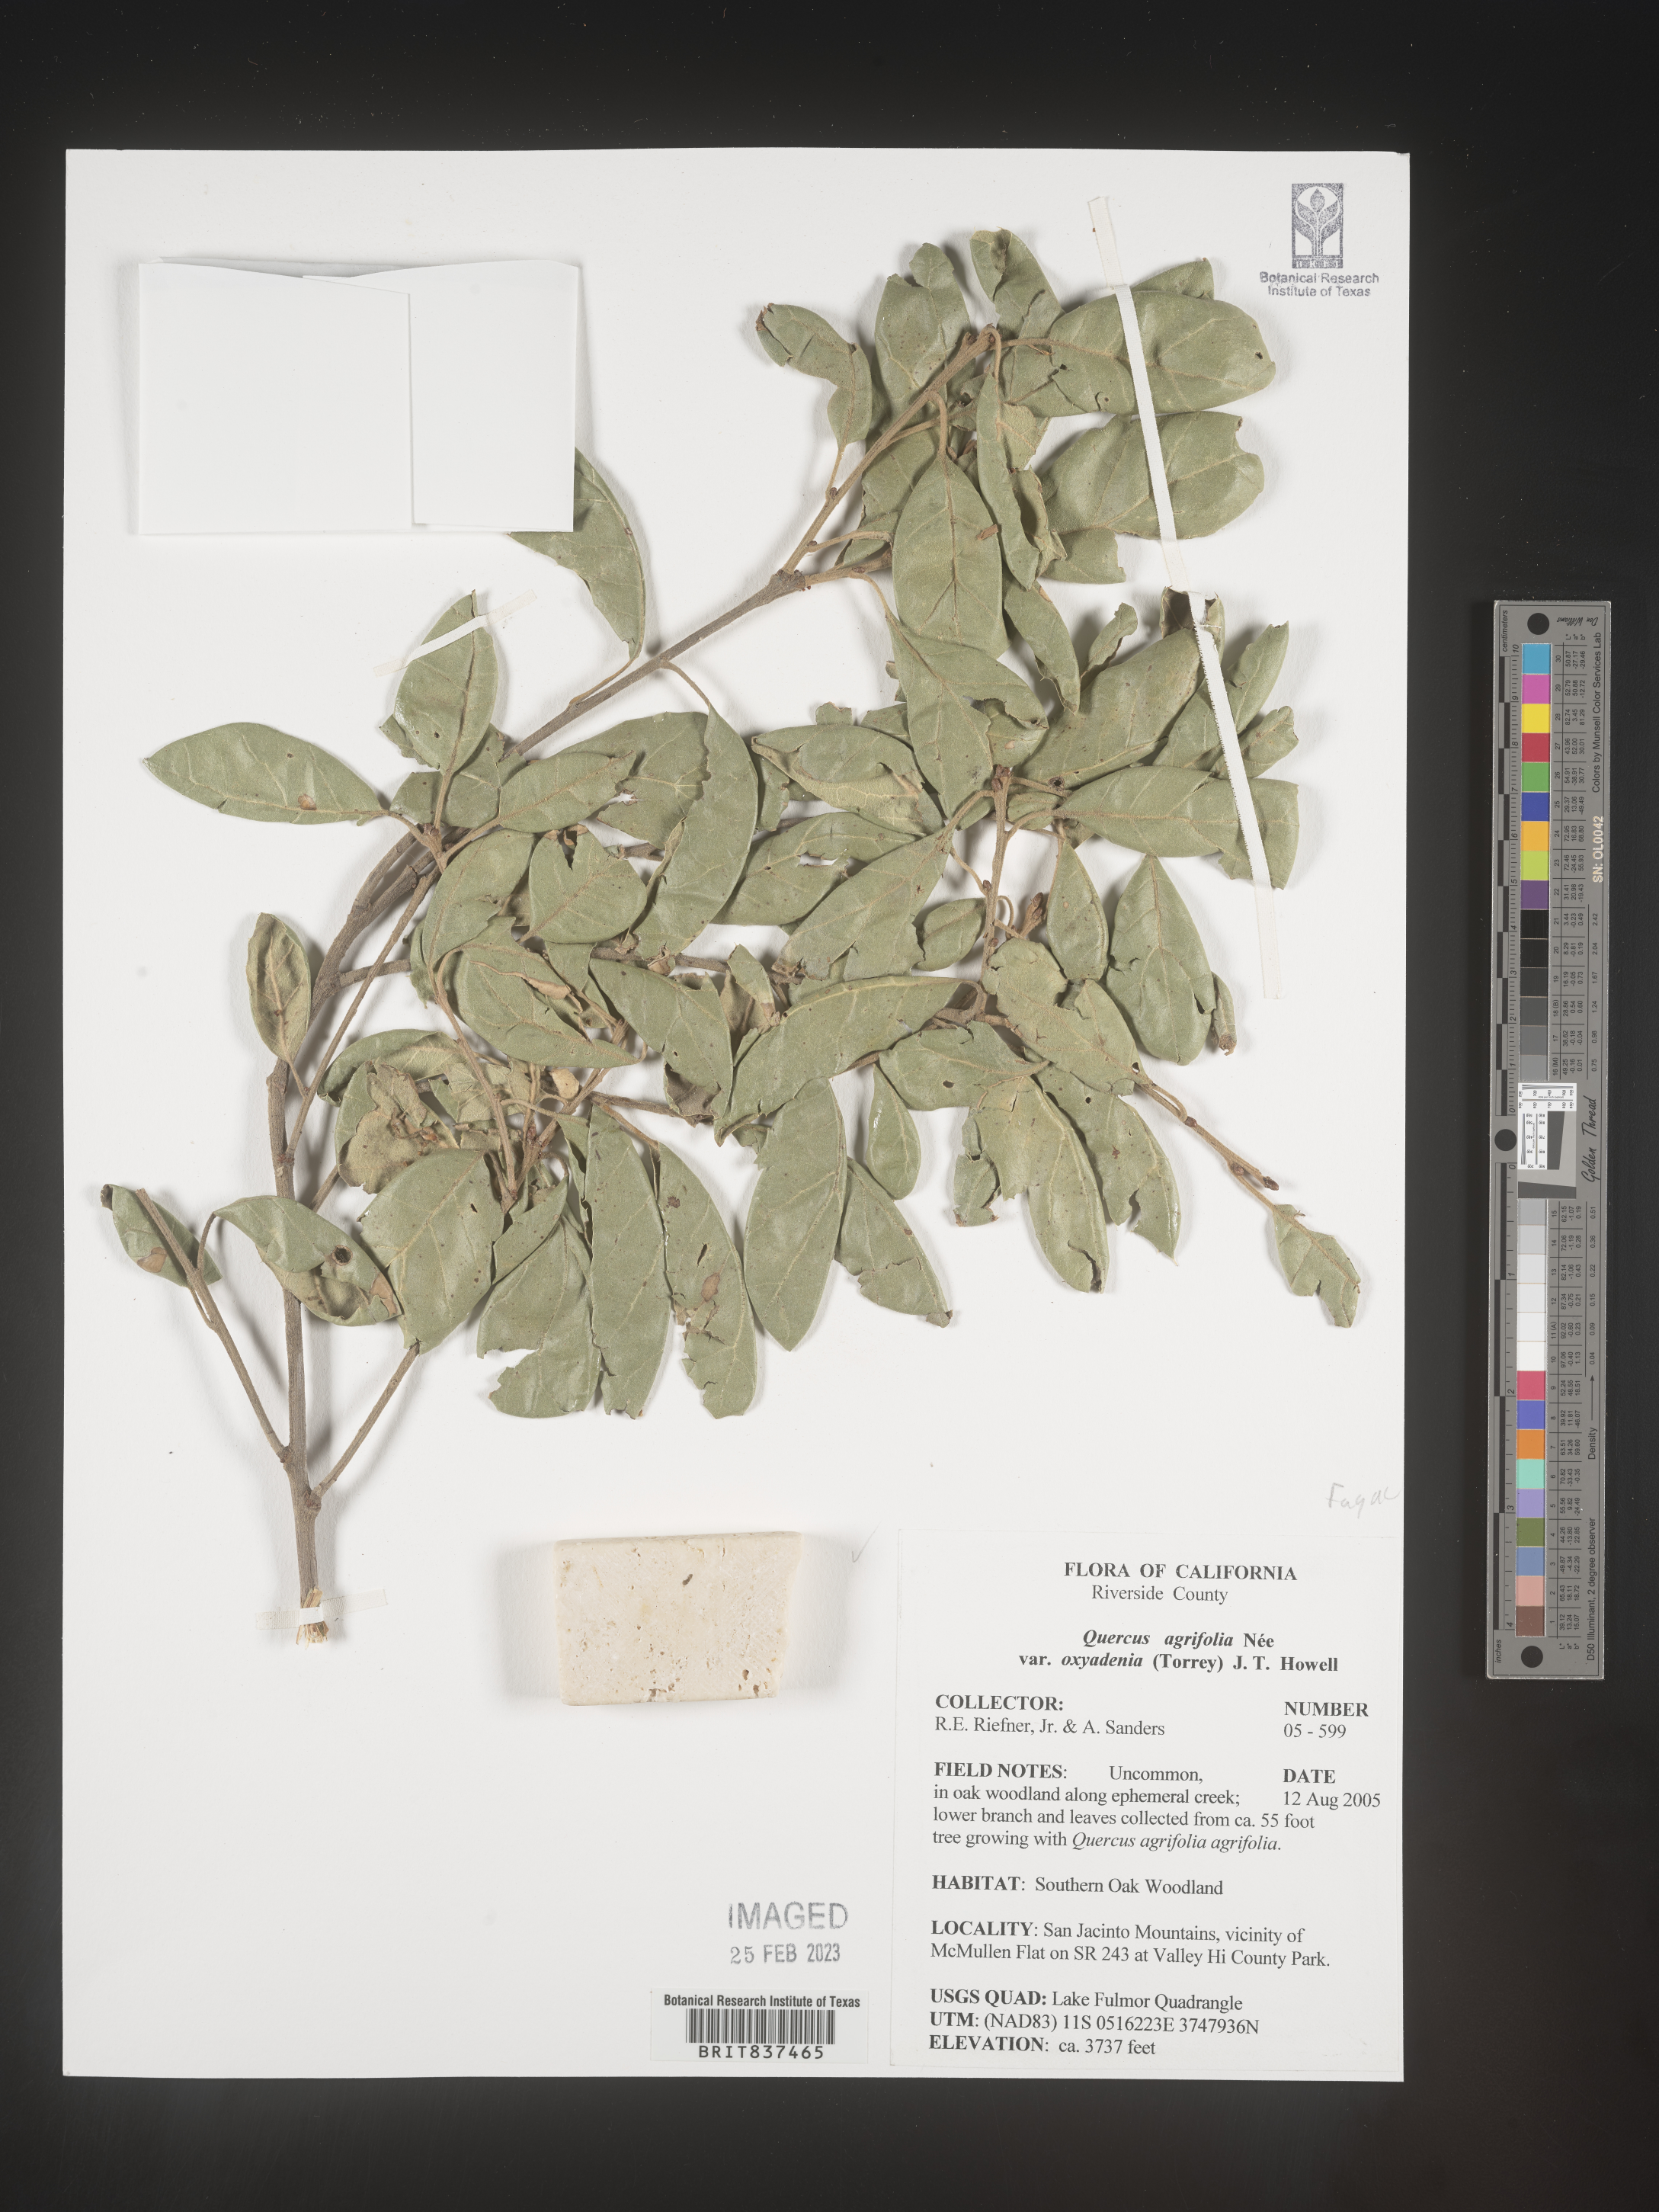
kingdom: Plantae
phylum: Tracheophyta
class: Magnoliopsida
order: Fagales
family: Fagaceae
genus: Quercus
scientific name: Quercus agrifolia
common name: California live oak
